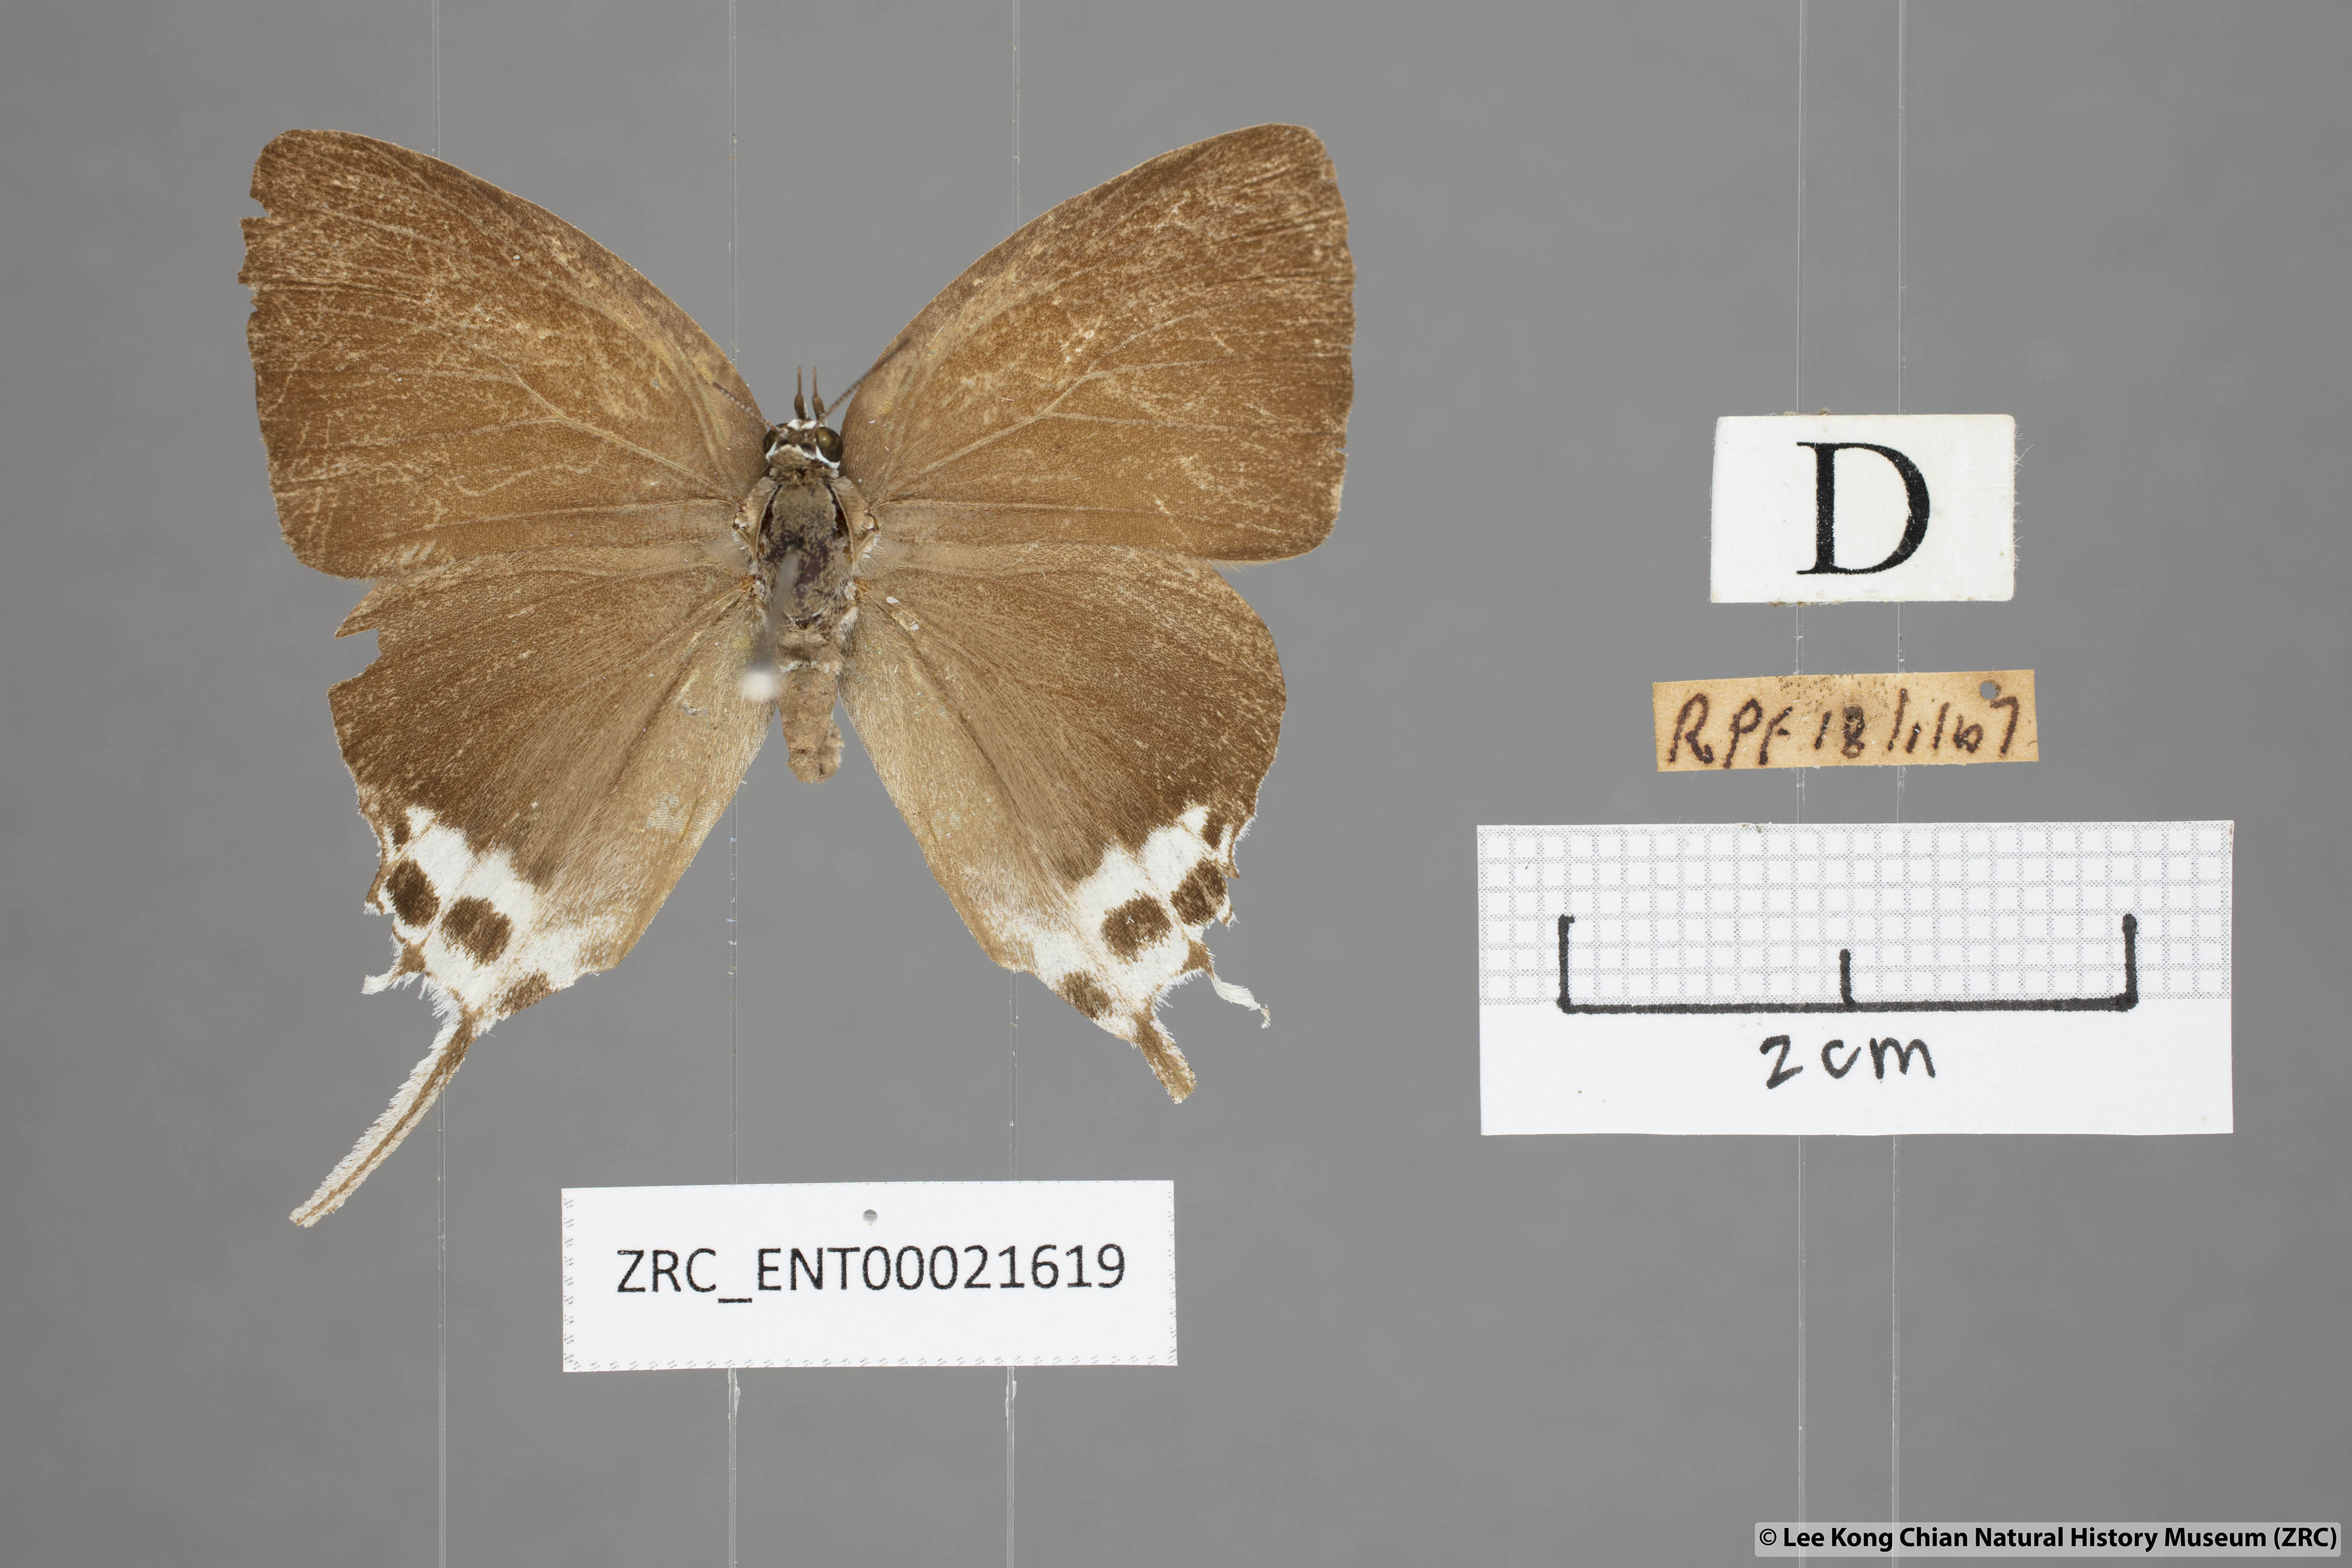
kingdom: Animalia
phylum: Arthropoda
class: Insecta
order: Lepidoptera
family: Lycaenidae
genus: Jacoona
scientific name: Jacoona anasuja
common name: Great imperial
